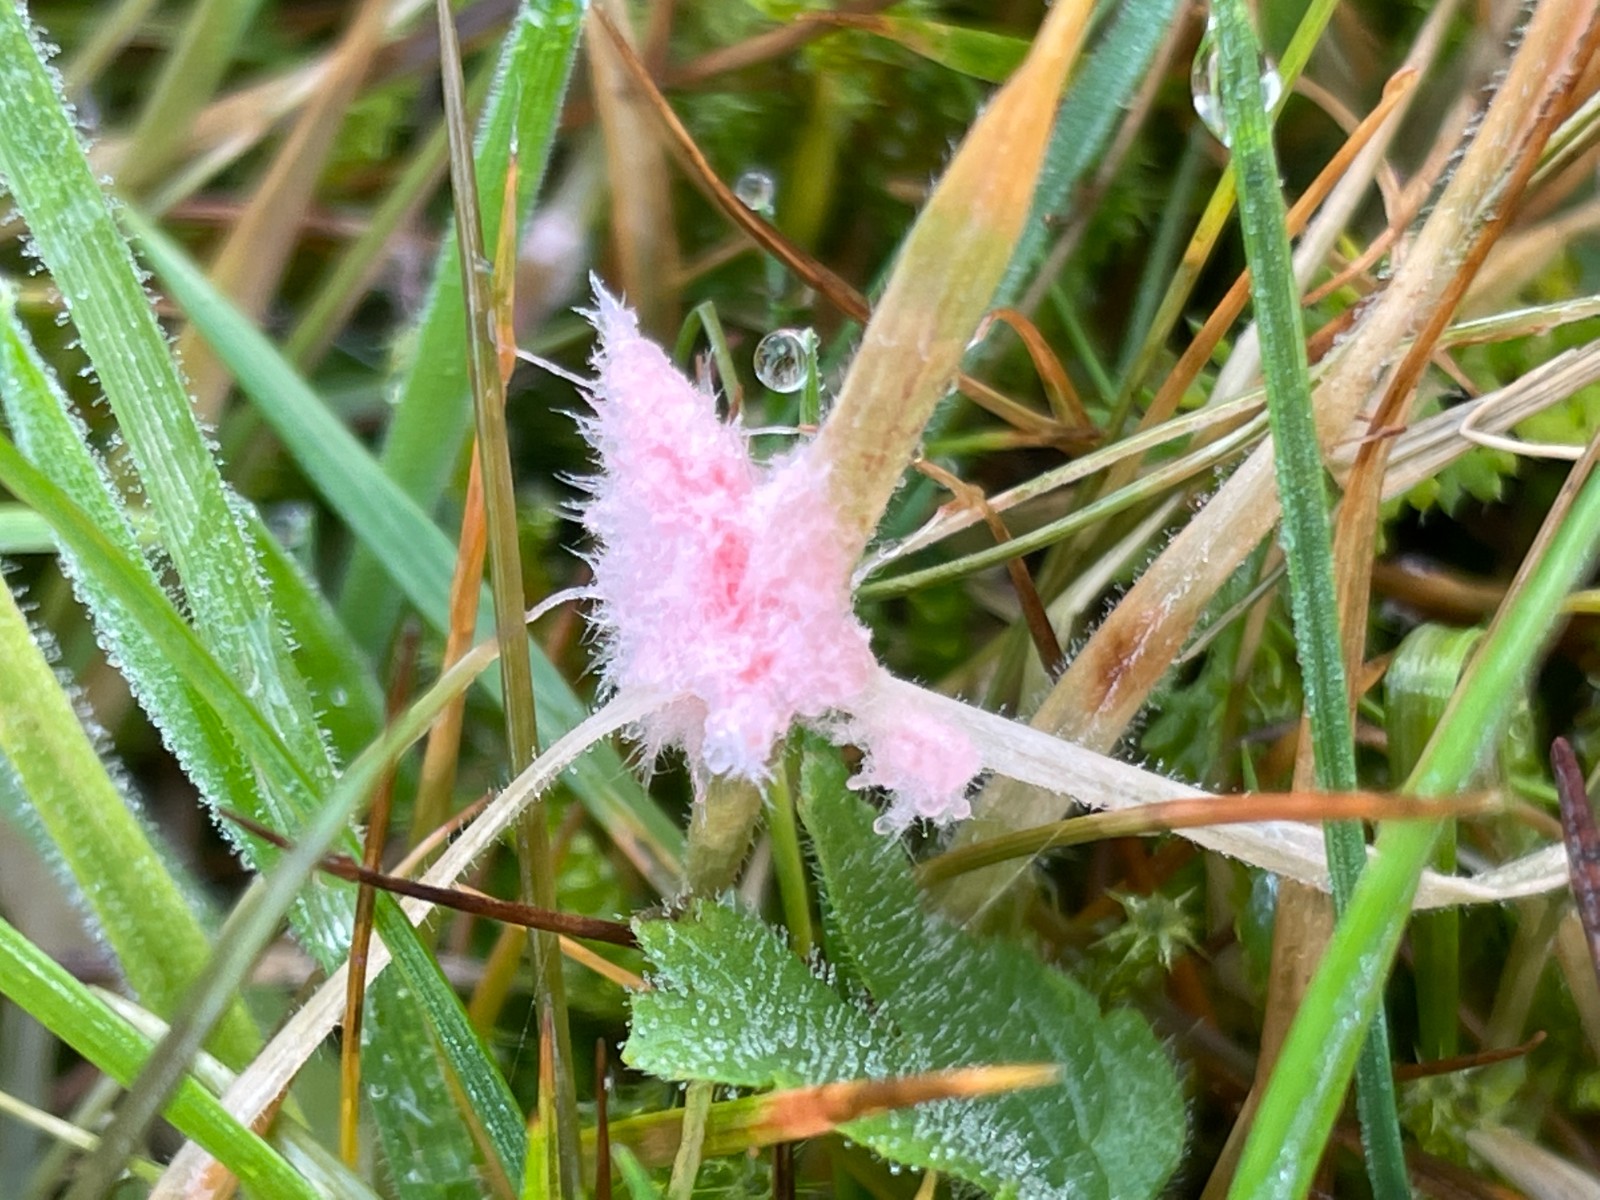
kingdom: Fungi
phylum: Basidiomycota
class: Agaricomycetes
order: Corticiales
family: Corticiaceae
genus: Laetisaria
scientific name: Laetisaria
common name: rødtråd
